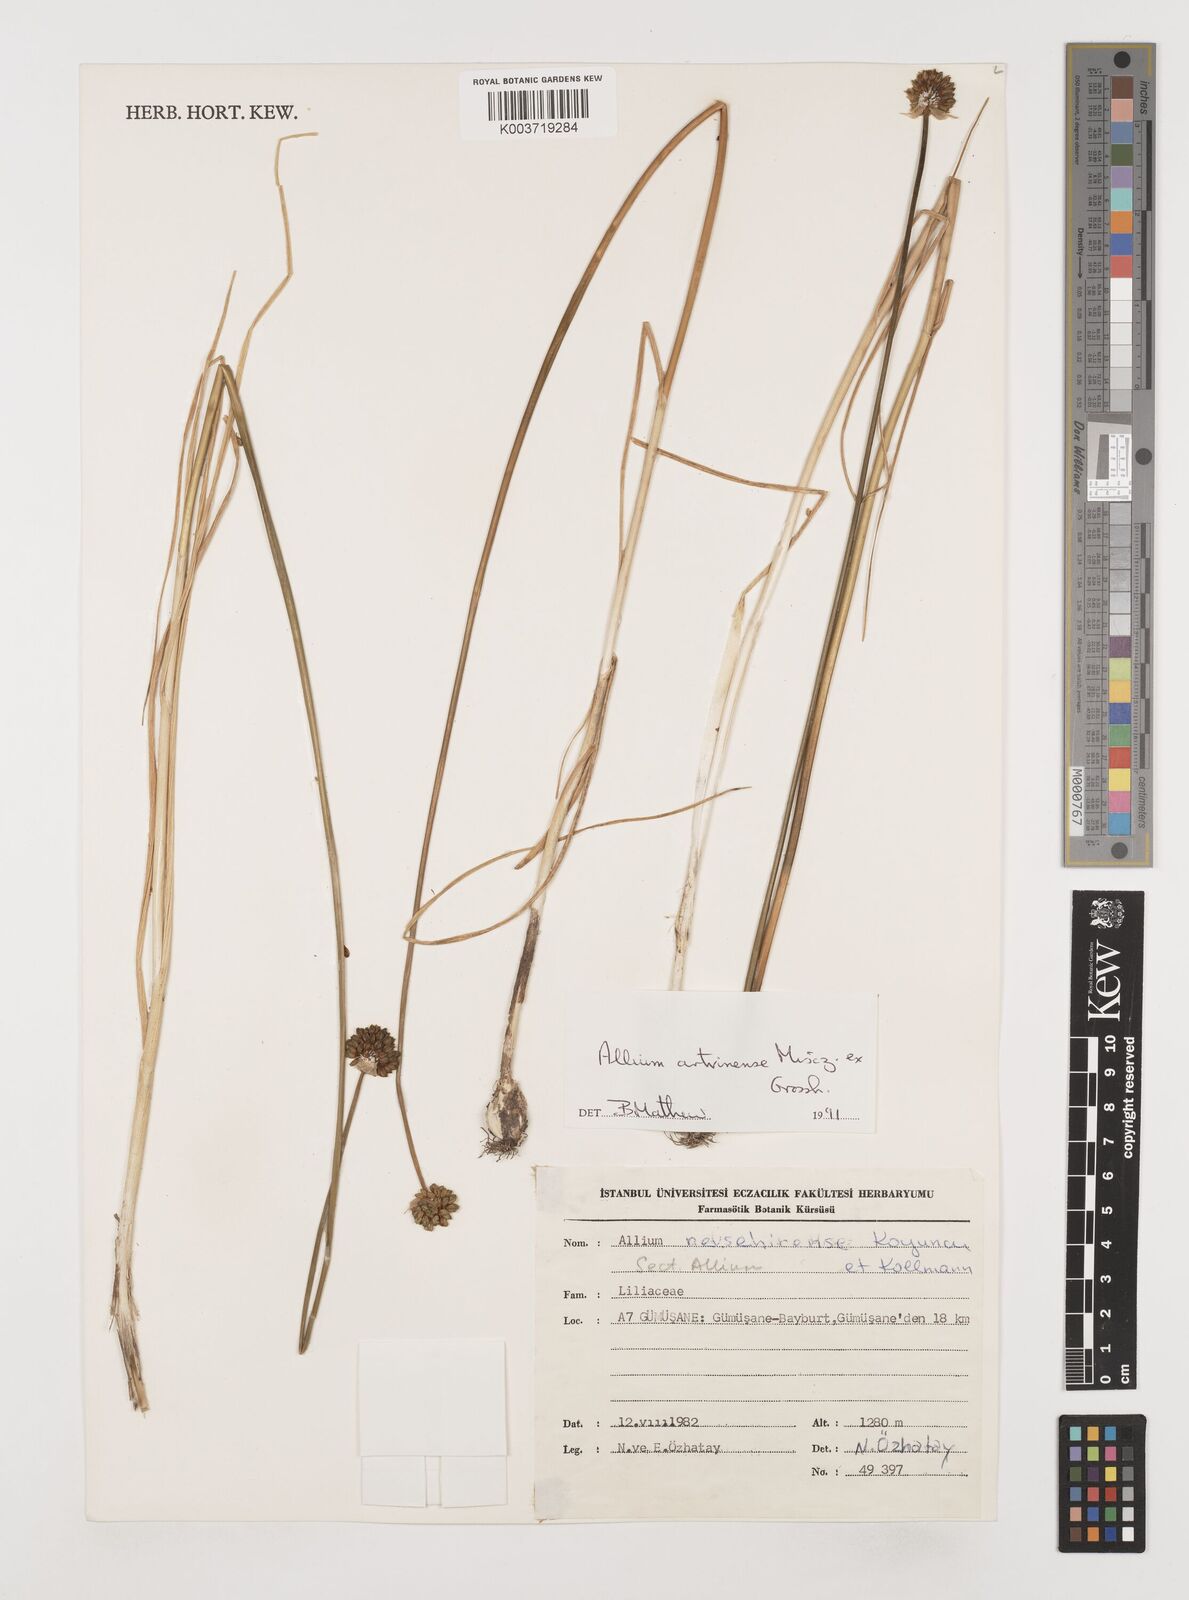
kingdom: Plantae
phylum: Tracheophyta
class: Liliopsida
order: Asparagales
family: Amaryllidaceae
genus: Allium
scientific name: Allium affine
